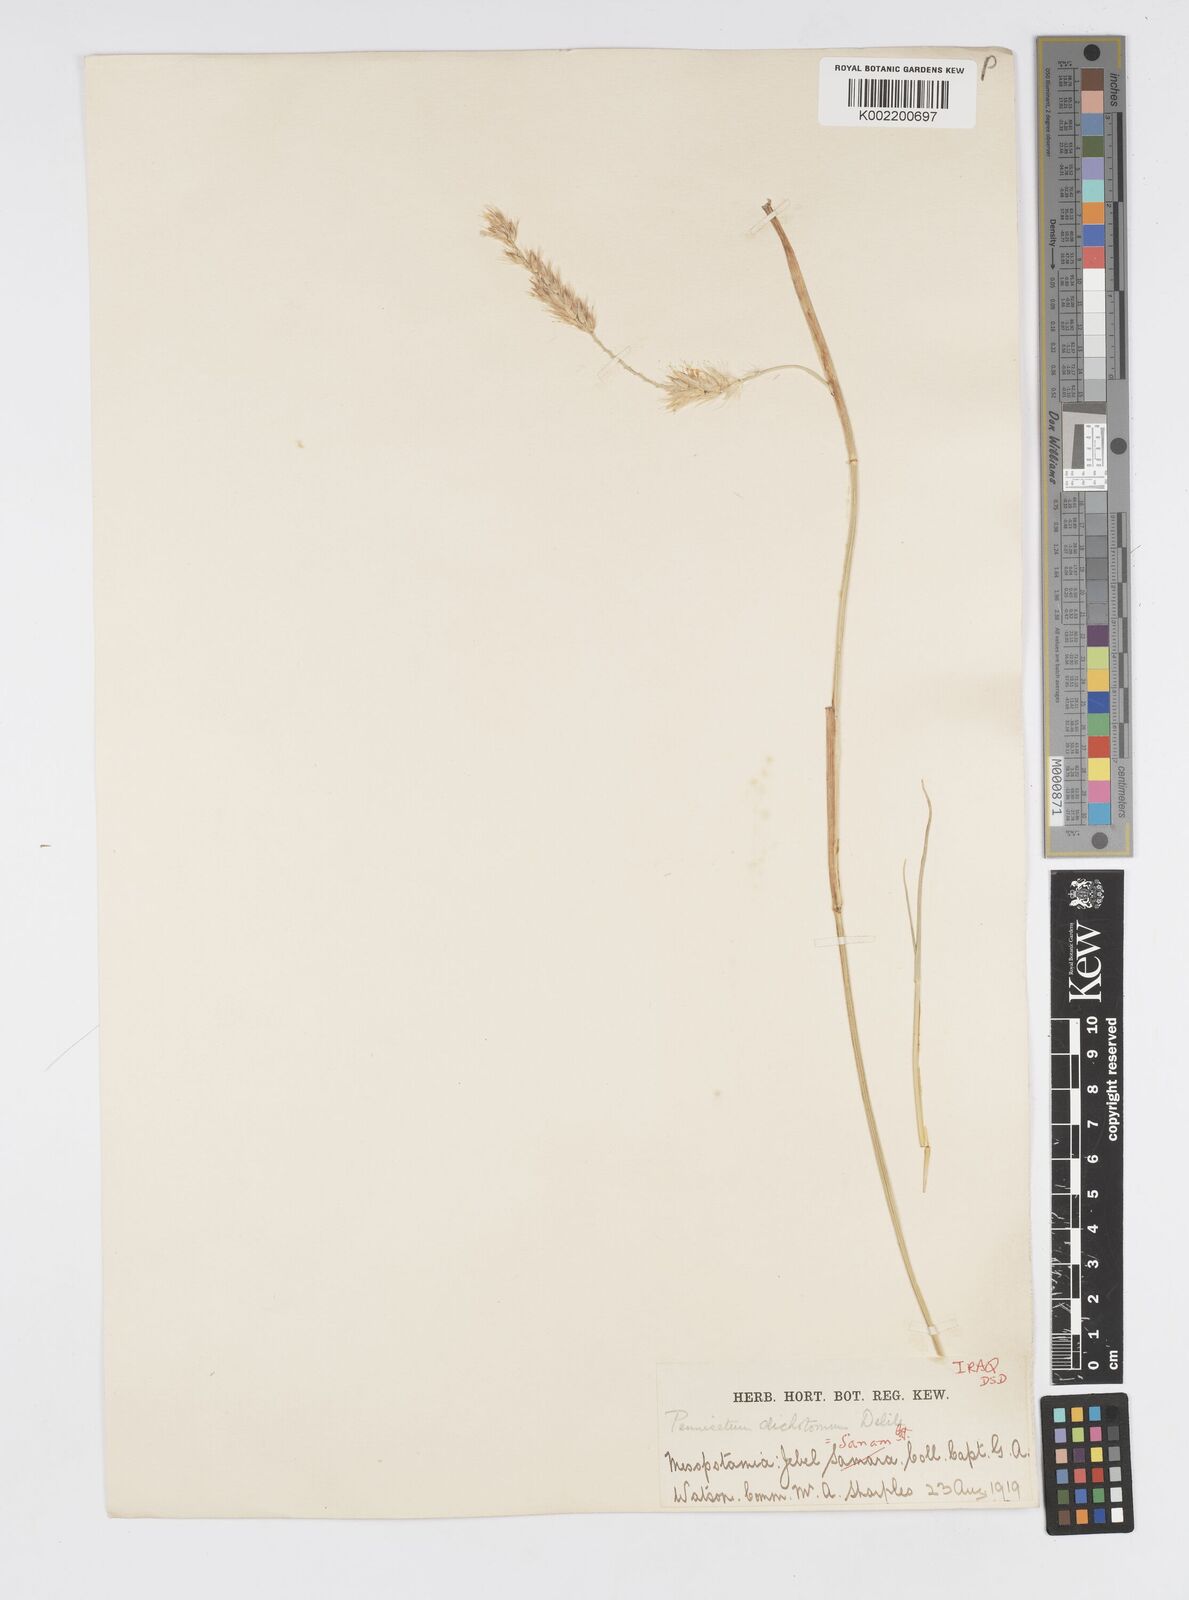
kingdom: Plantae
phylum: Tracheophyta
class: Liliopsida
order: Poales
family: Poaceae
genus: Cenchrus
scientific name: Cenchrus divisus
